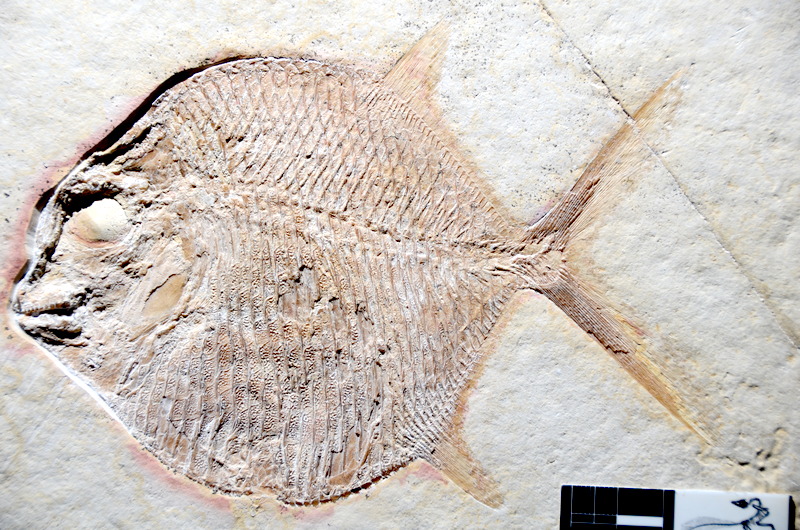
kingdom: Animalia
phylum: Chordata
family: Gyrodontidae
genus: Gyrodus
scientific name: Gyrodus hexagonus
